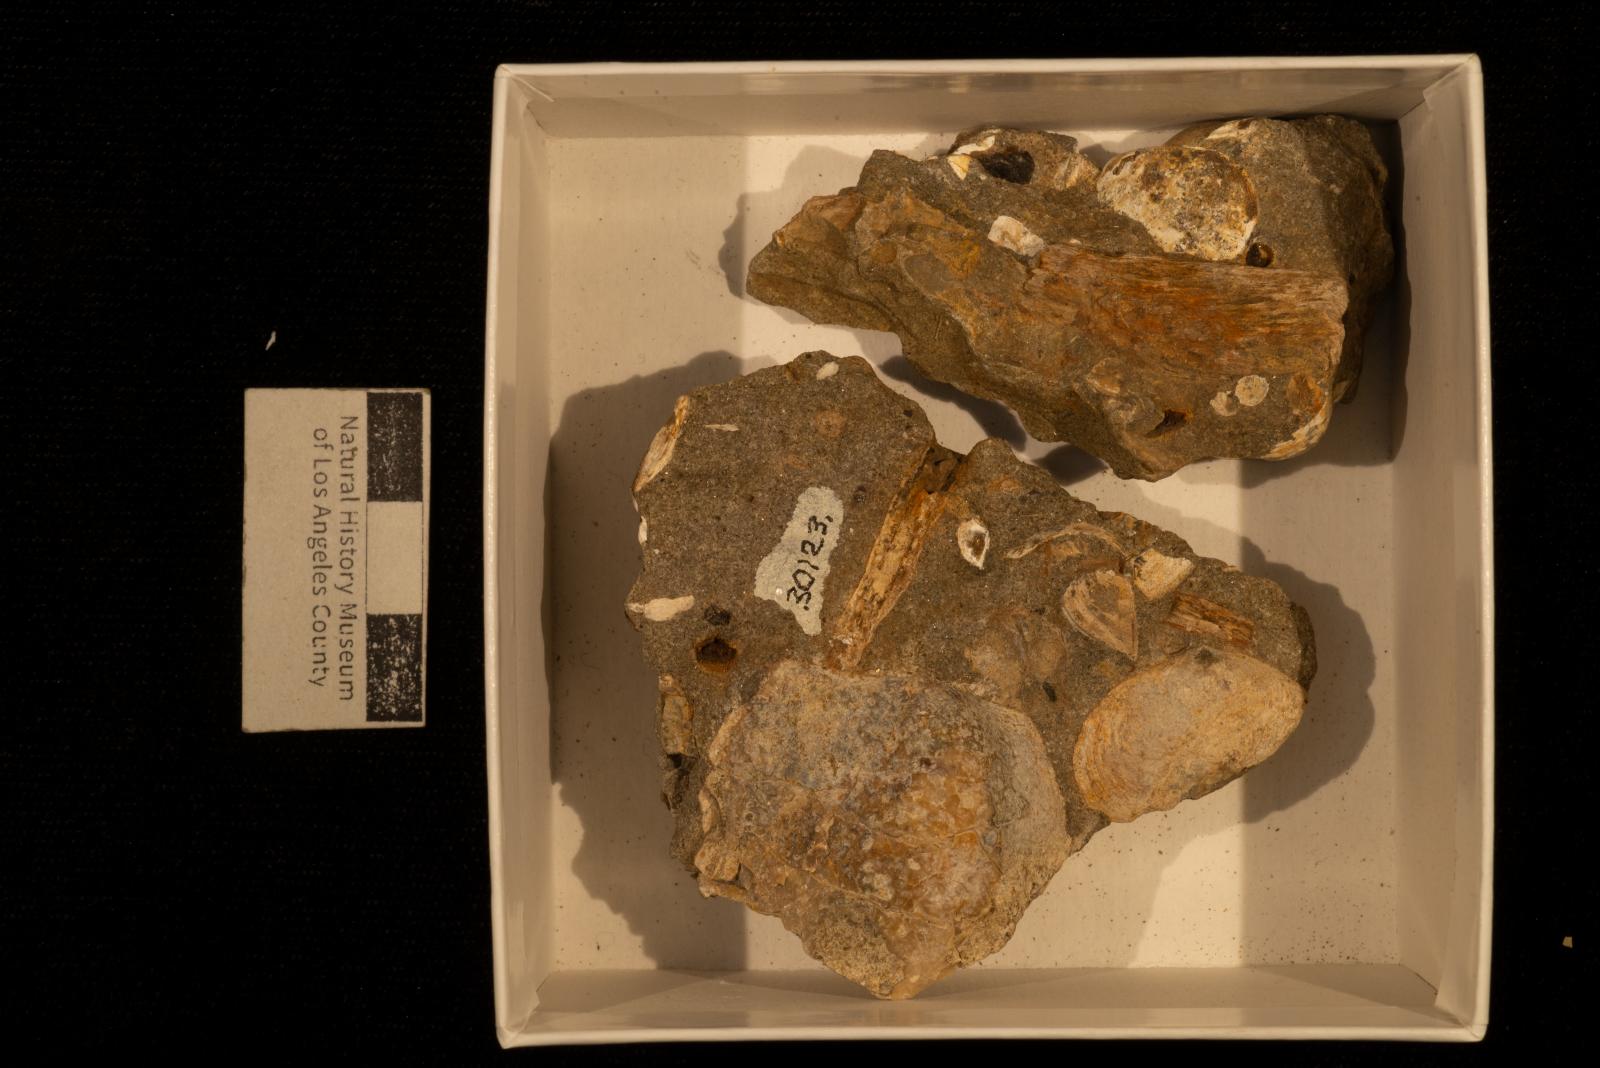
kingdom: Animalia
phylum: Mollusca
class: Bivalvia
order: Ostreida
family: Pteriidae
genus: Pteria
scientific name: Pteria pellucida
